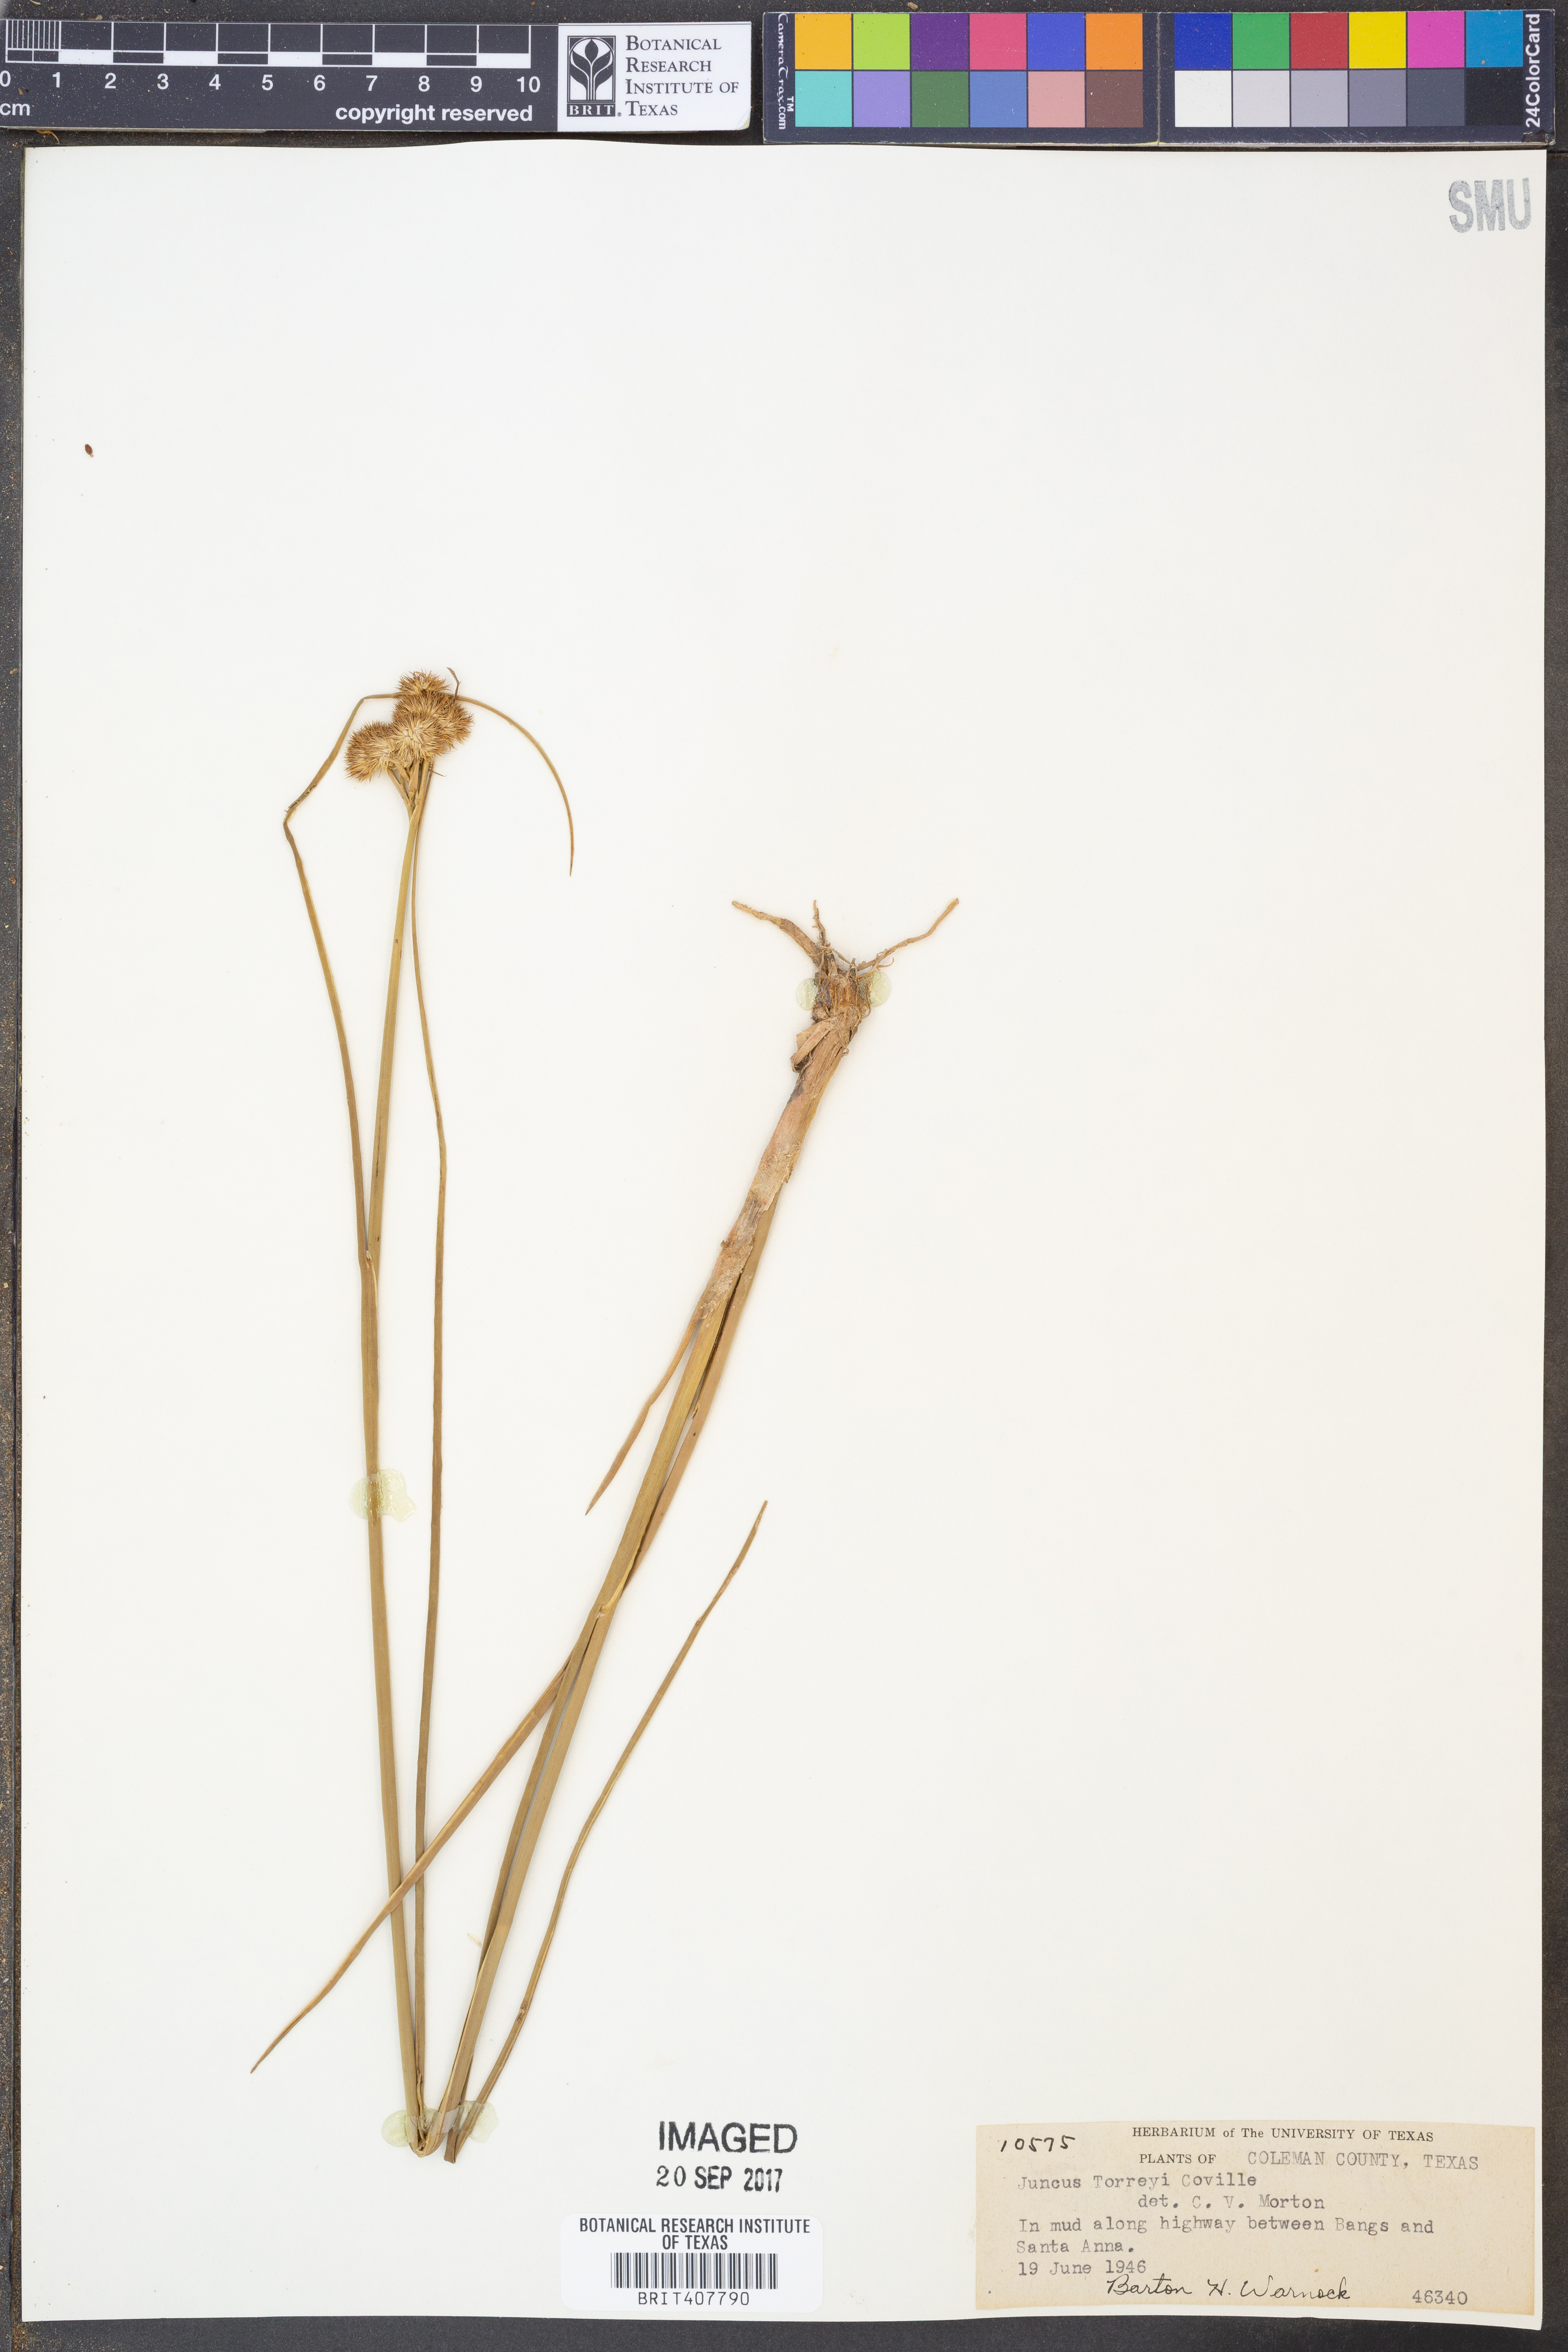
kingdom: Plantae
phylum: Tracheophyta
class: Liliopsida
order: Poales
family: Juncaceae
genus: Juncus
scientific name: Juncus torreyi
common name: Torrey's rush
